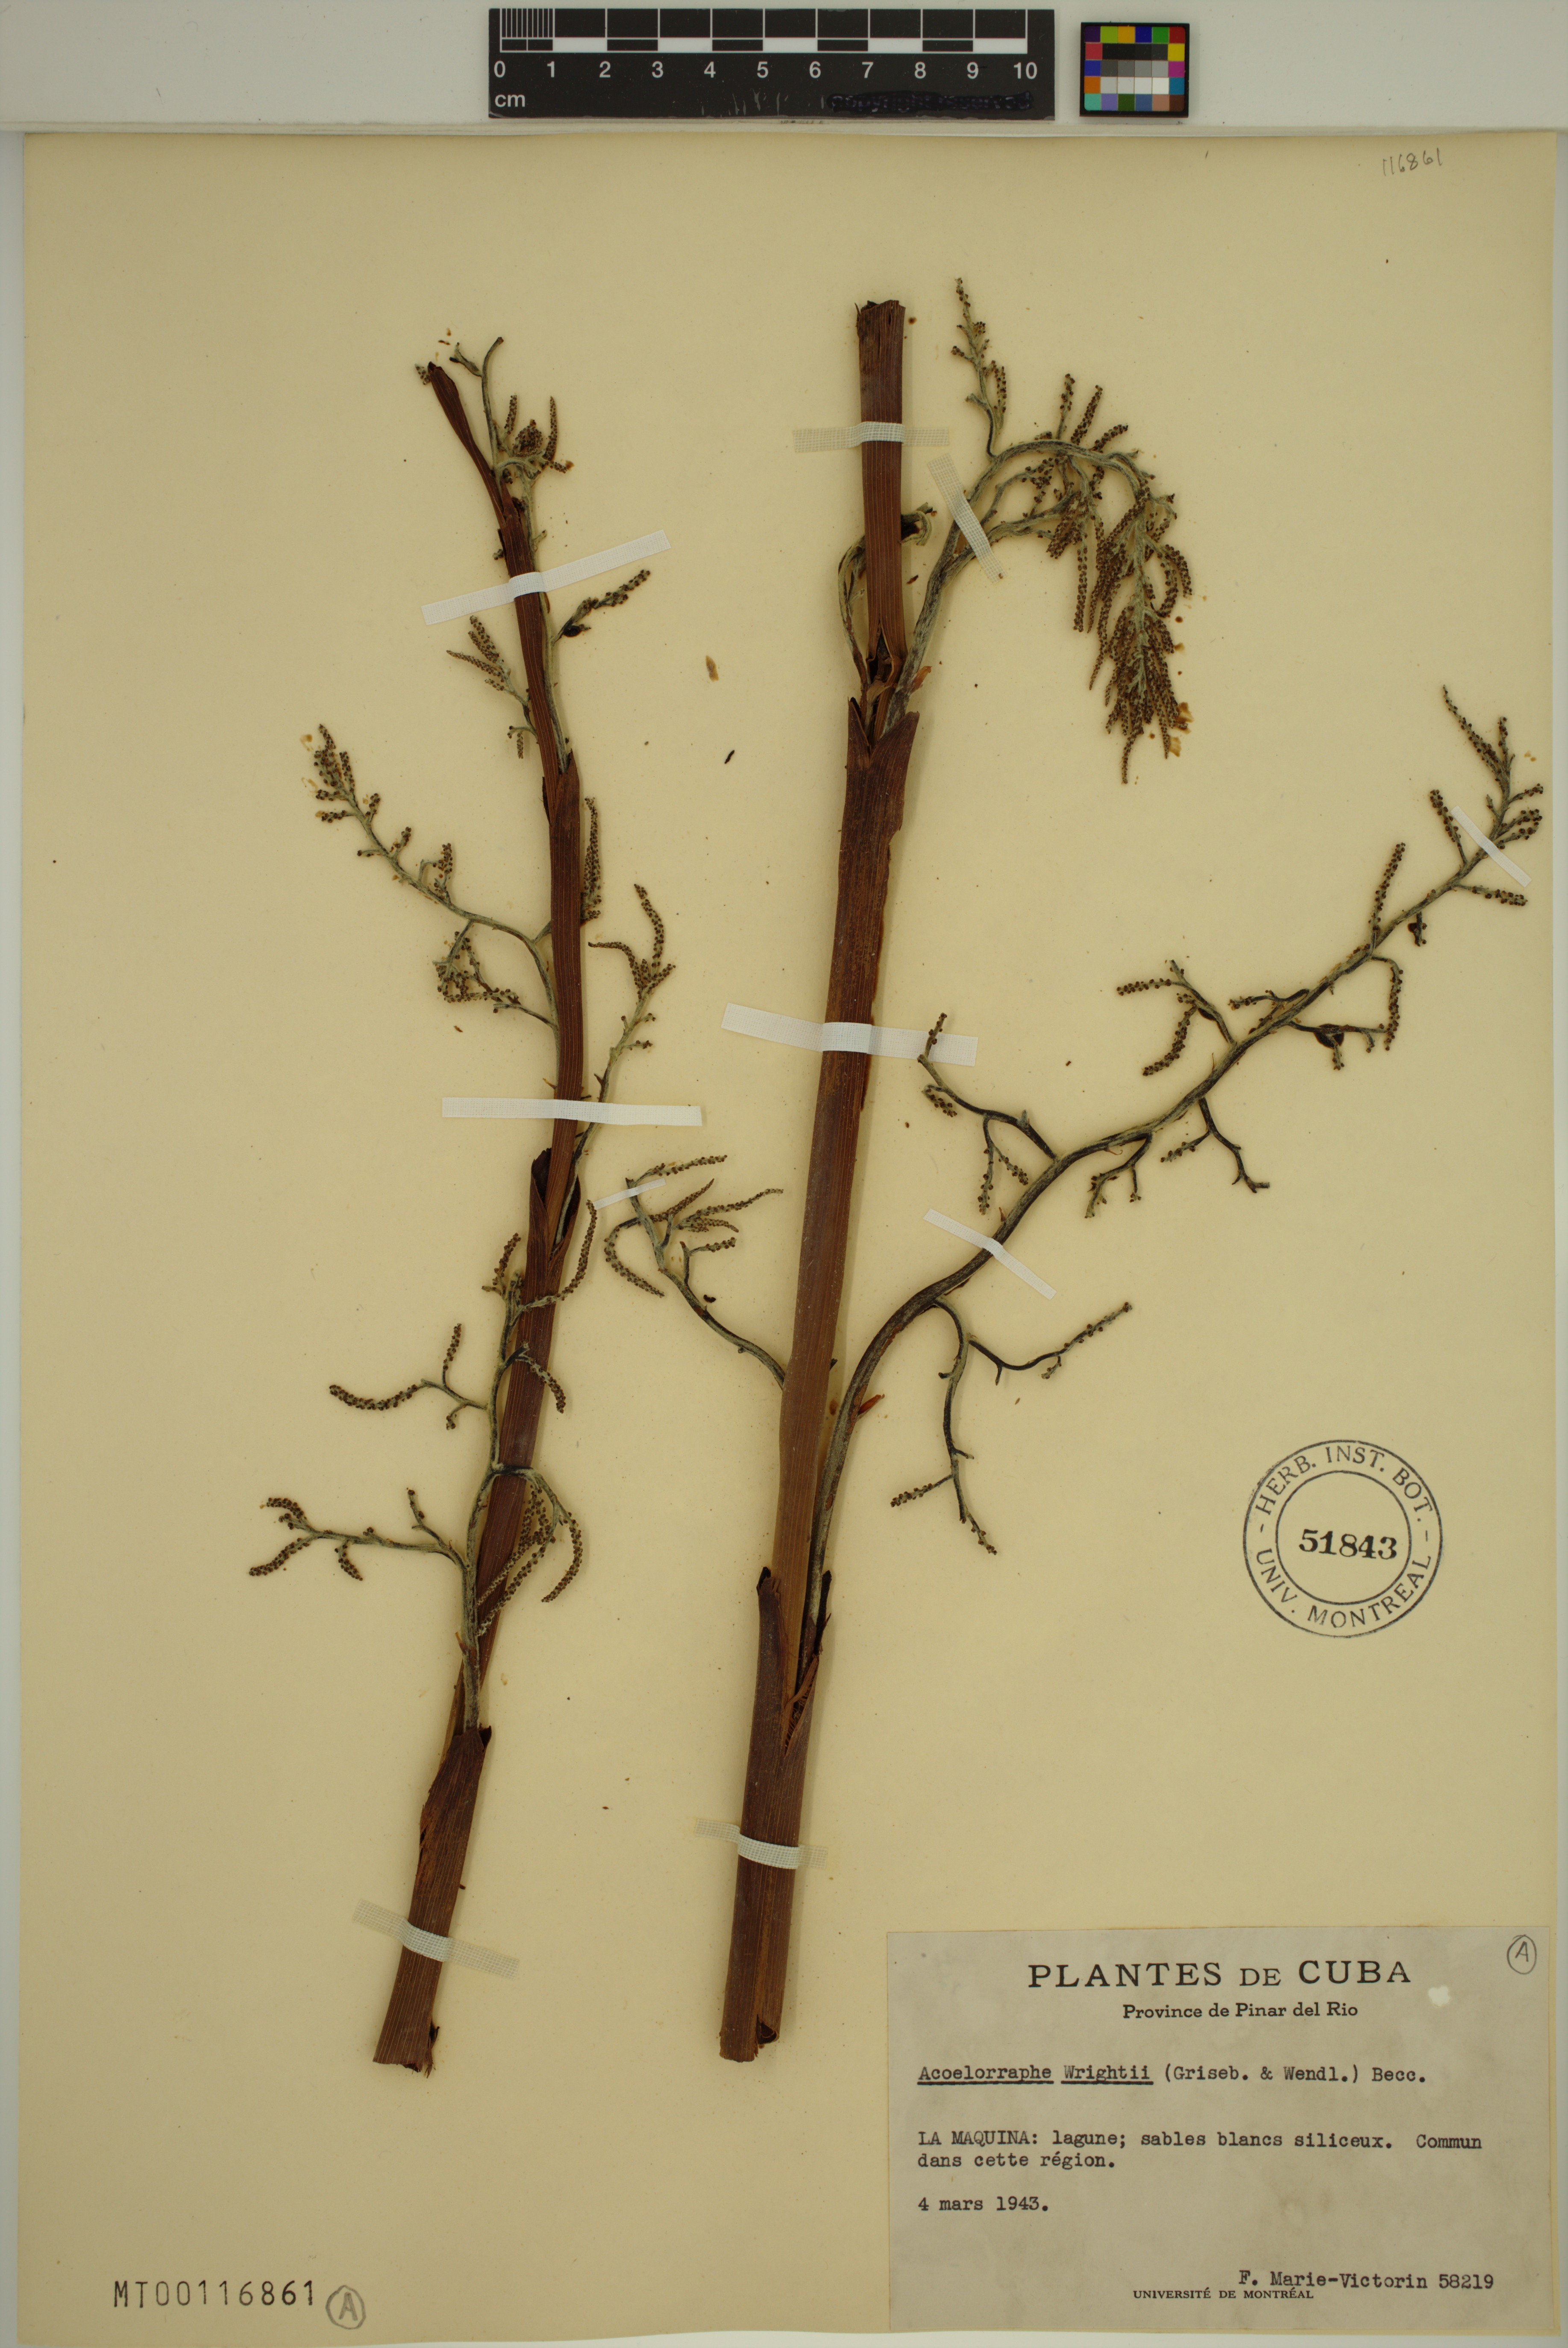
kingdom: Plantae
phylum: Tracheophyta
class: Liliopsida
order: Arecales
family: Arecaceae
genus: Acoelorraphe
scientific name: Acoelorraphe wrightii
